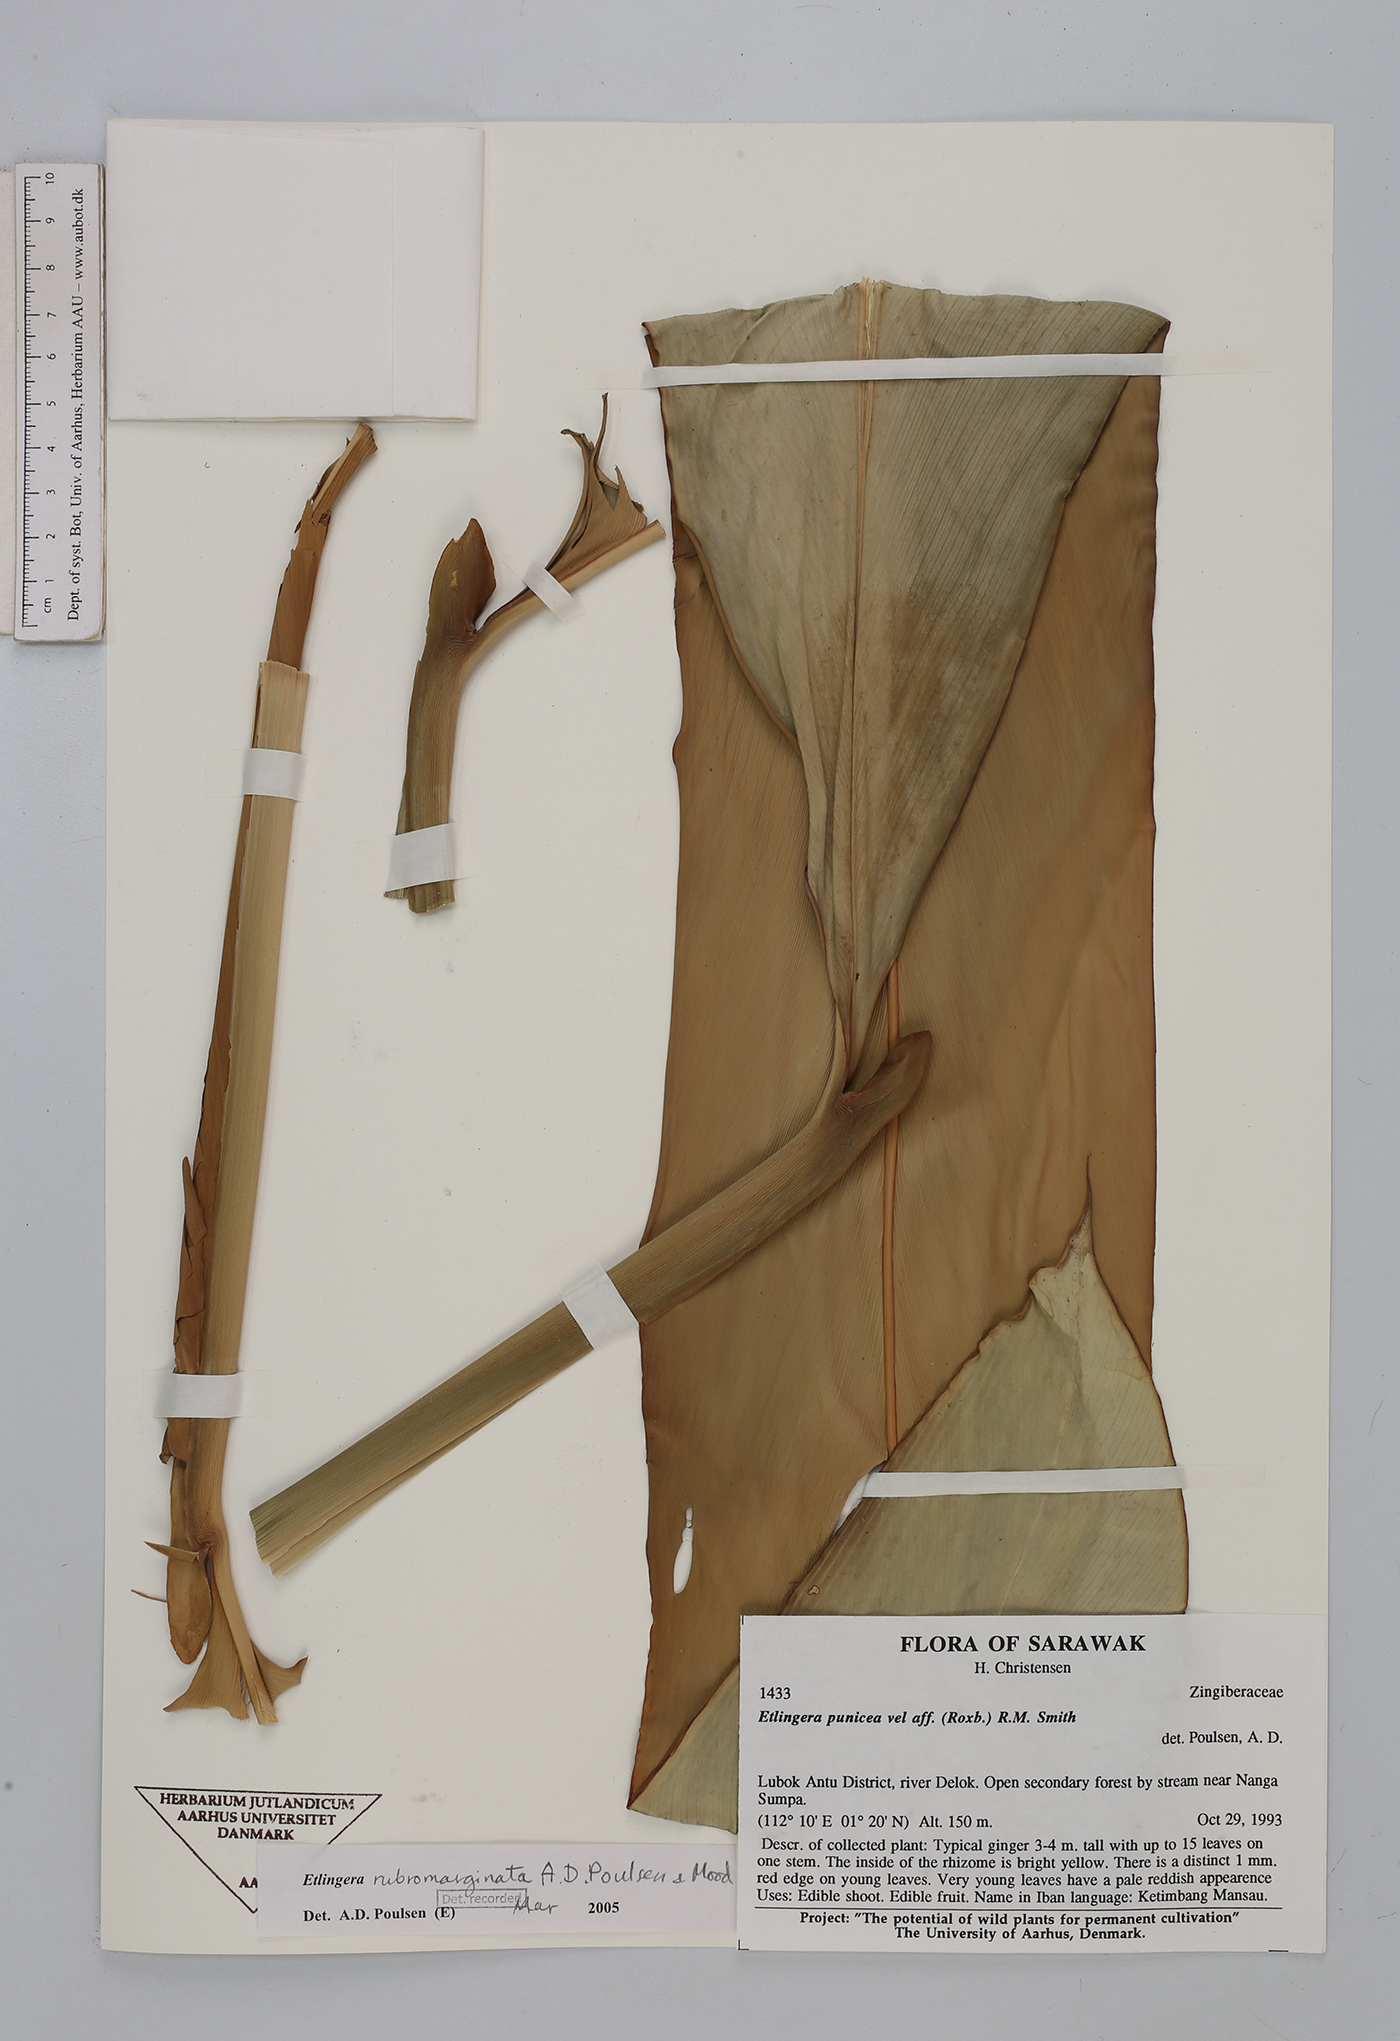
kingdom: Plantae
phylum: Tracheophyta
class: Liliopsida
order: Zingiberales
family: Zingiberaceae
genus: Etlingera
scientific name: Etlingera rubromarginata
